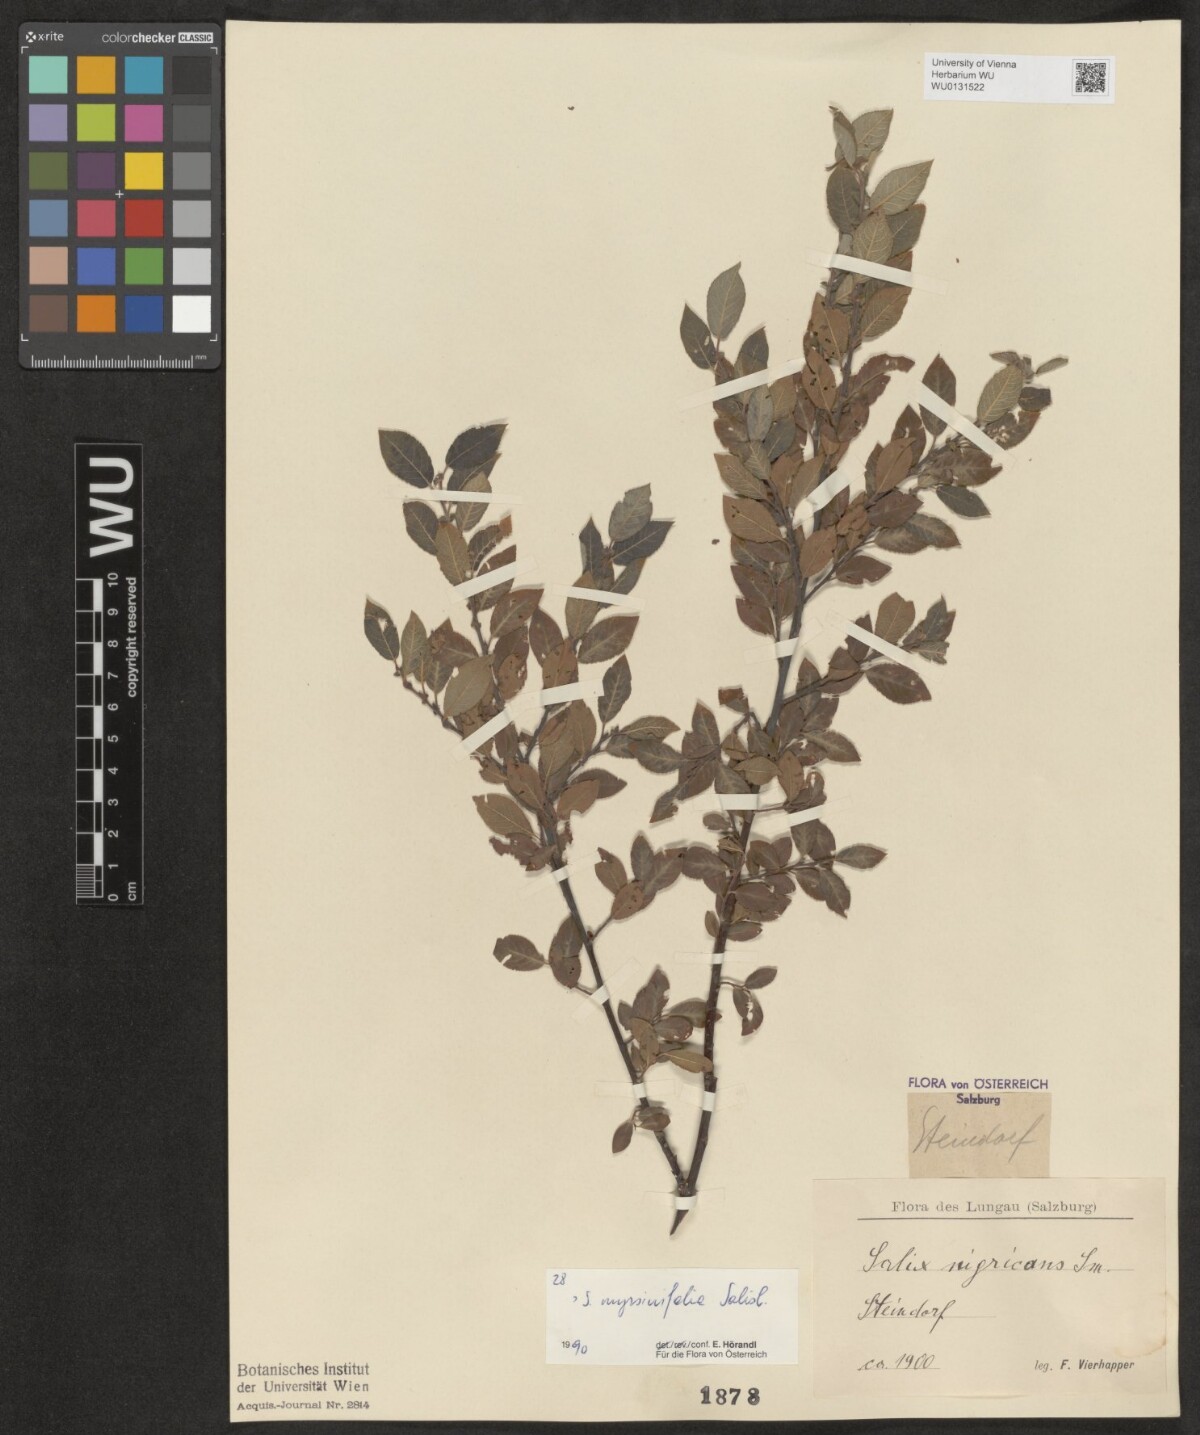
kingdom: Plantae
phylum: Tracheophyta
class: Magnoliopsida
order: Malpighiales
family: Salicaceae
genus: Salix
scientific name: Salix myrsinifolia
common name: Dark-leaved willow
